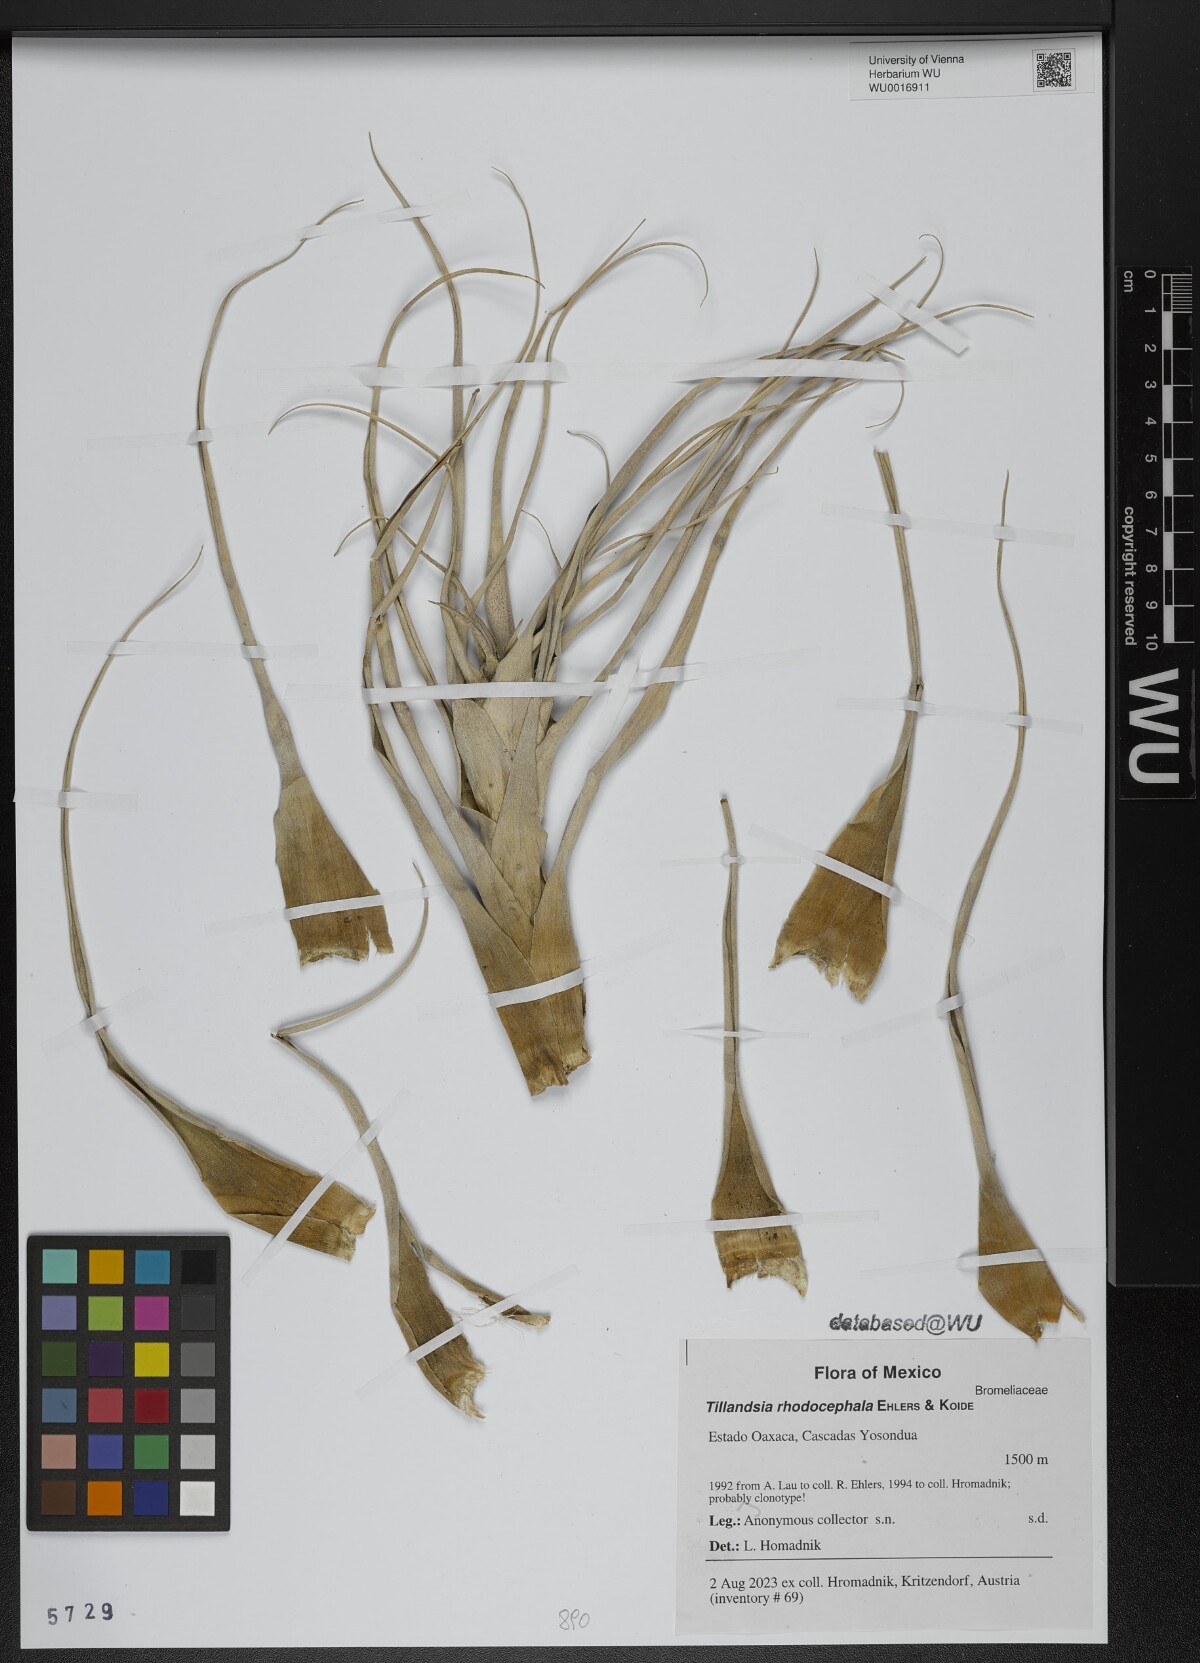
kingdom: Plantae
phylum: Tracheophyta
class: Liliopsida
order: Poales
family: Bromeliaceae
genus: Tillandsia
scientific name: Tillandsia rhodocephala
